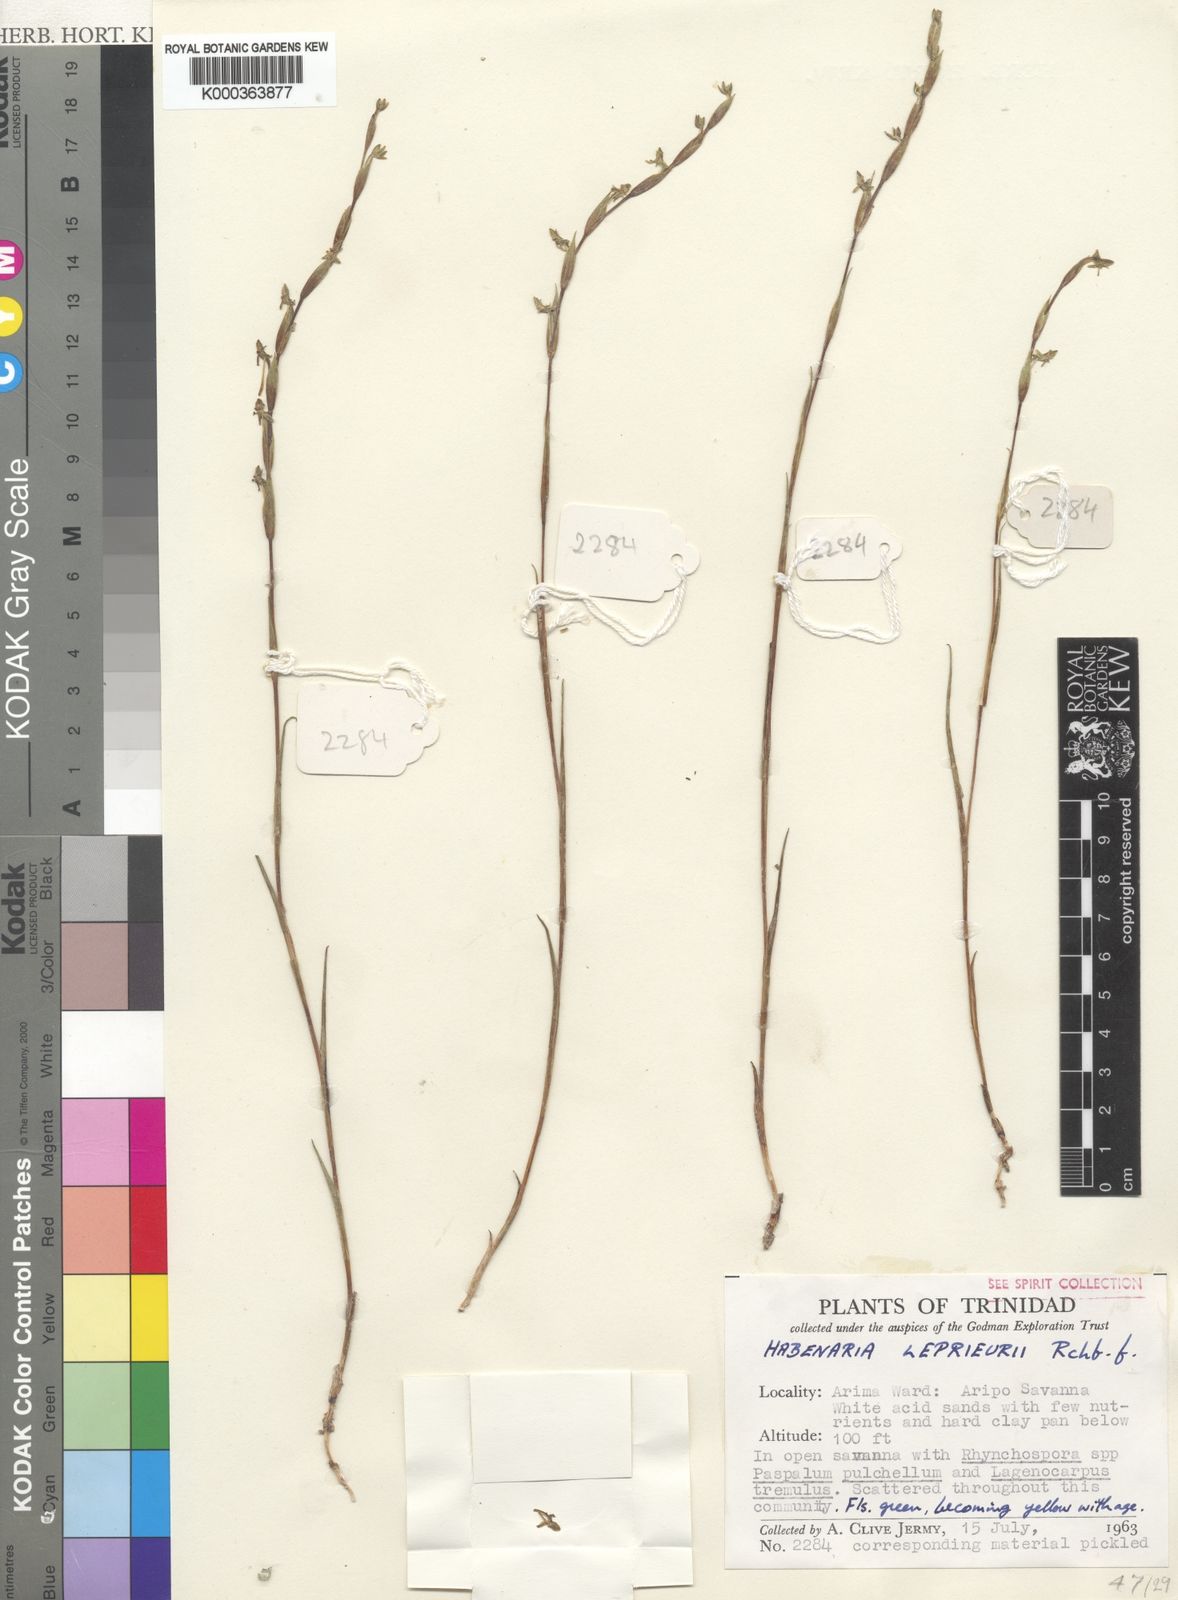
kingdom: Plantae
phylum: Tracheophyta
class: Liliopsida
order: Asparagales
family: Orchidaceae
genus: Habenaria
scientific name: Habenaria leprieurii
